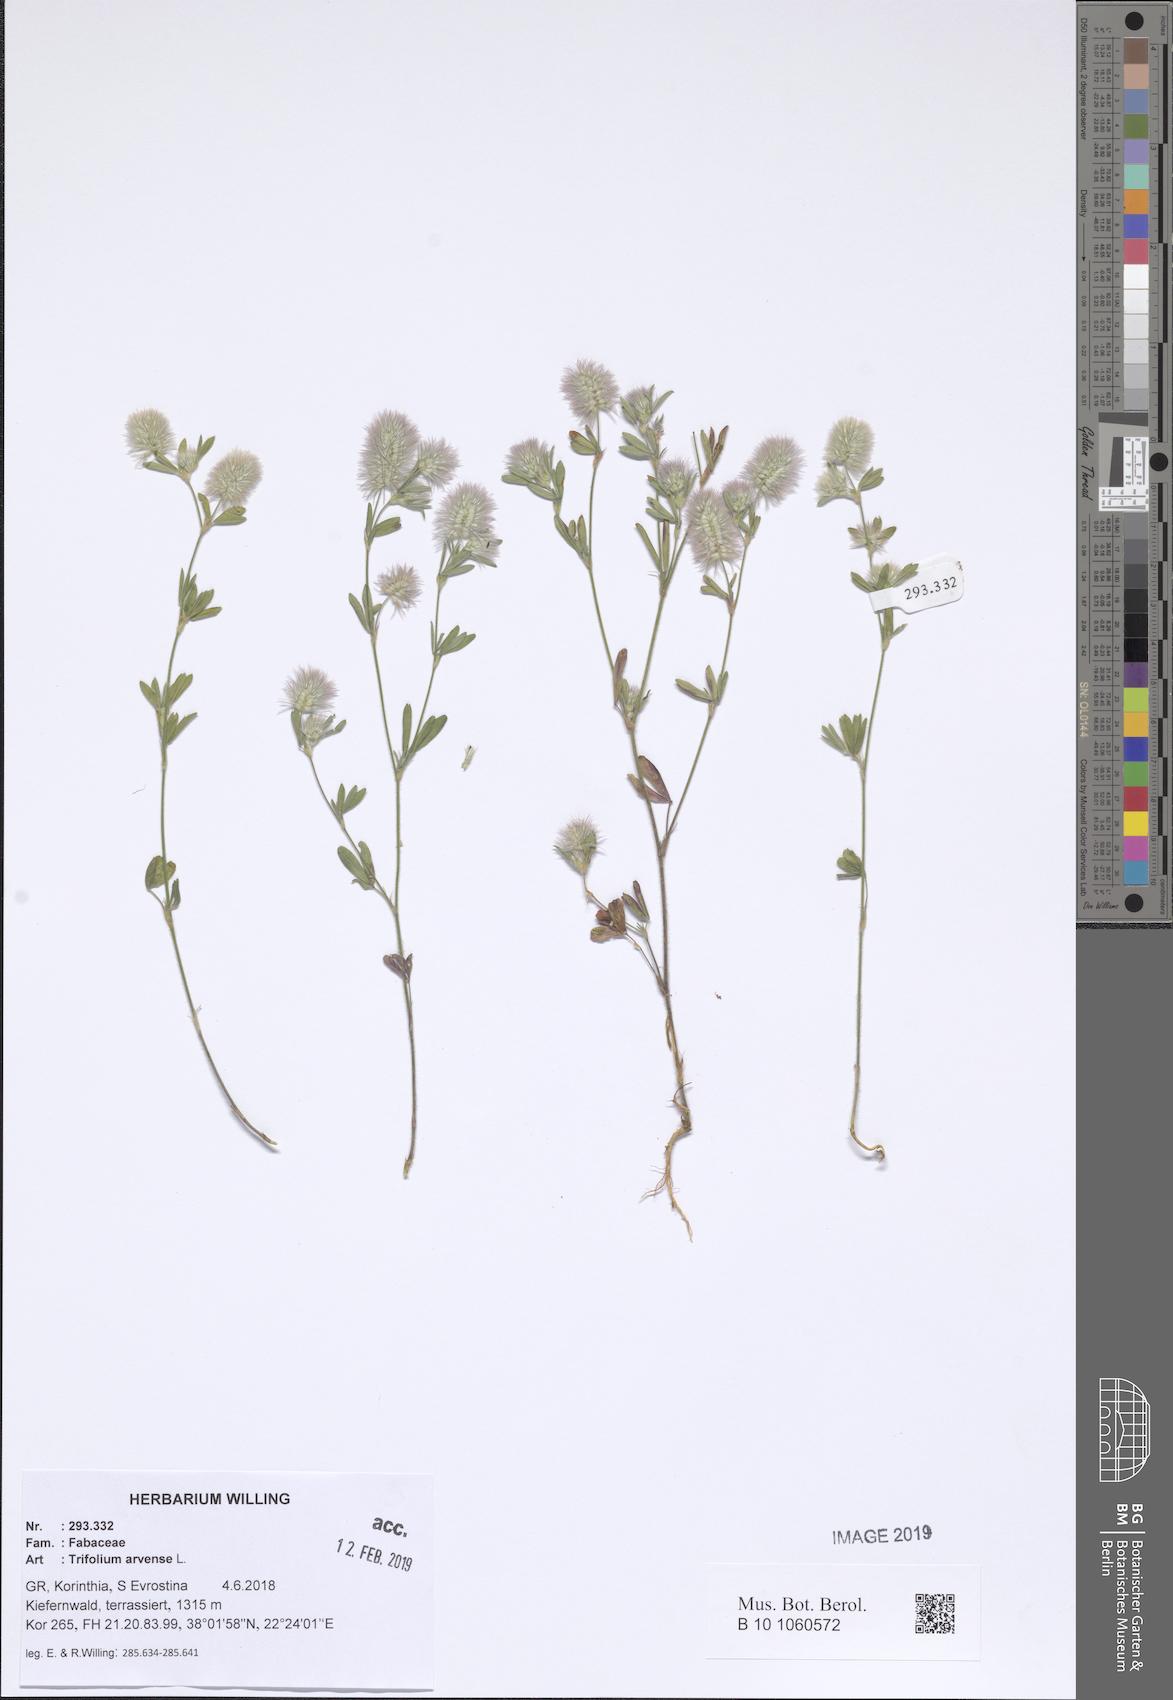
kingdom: Plantae
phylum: Tracheophyta
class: Magnoliopsida
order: Fabales
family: Fabaceae
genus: Trifolium
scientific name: Trifolium arvense
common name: Hare's-foot clover
